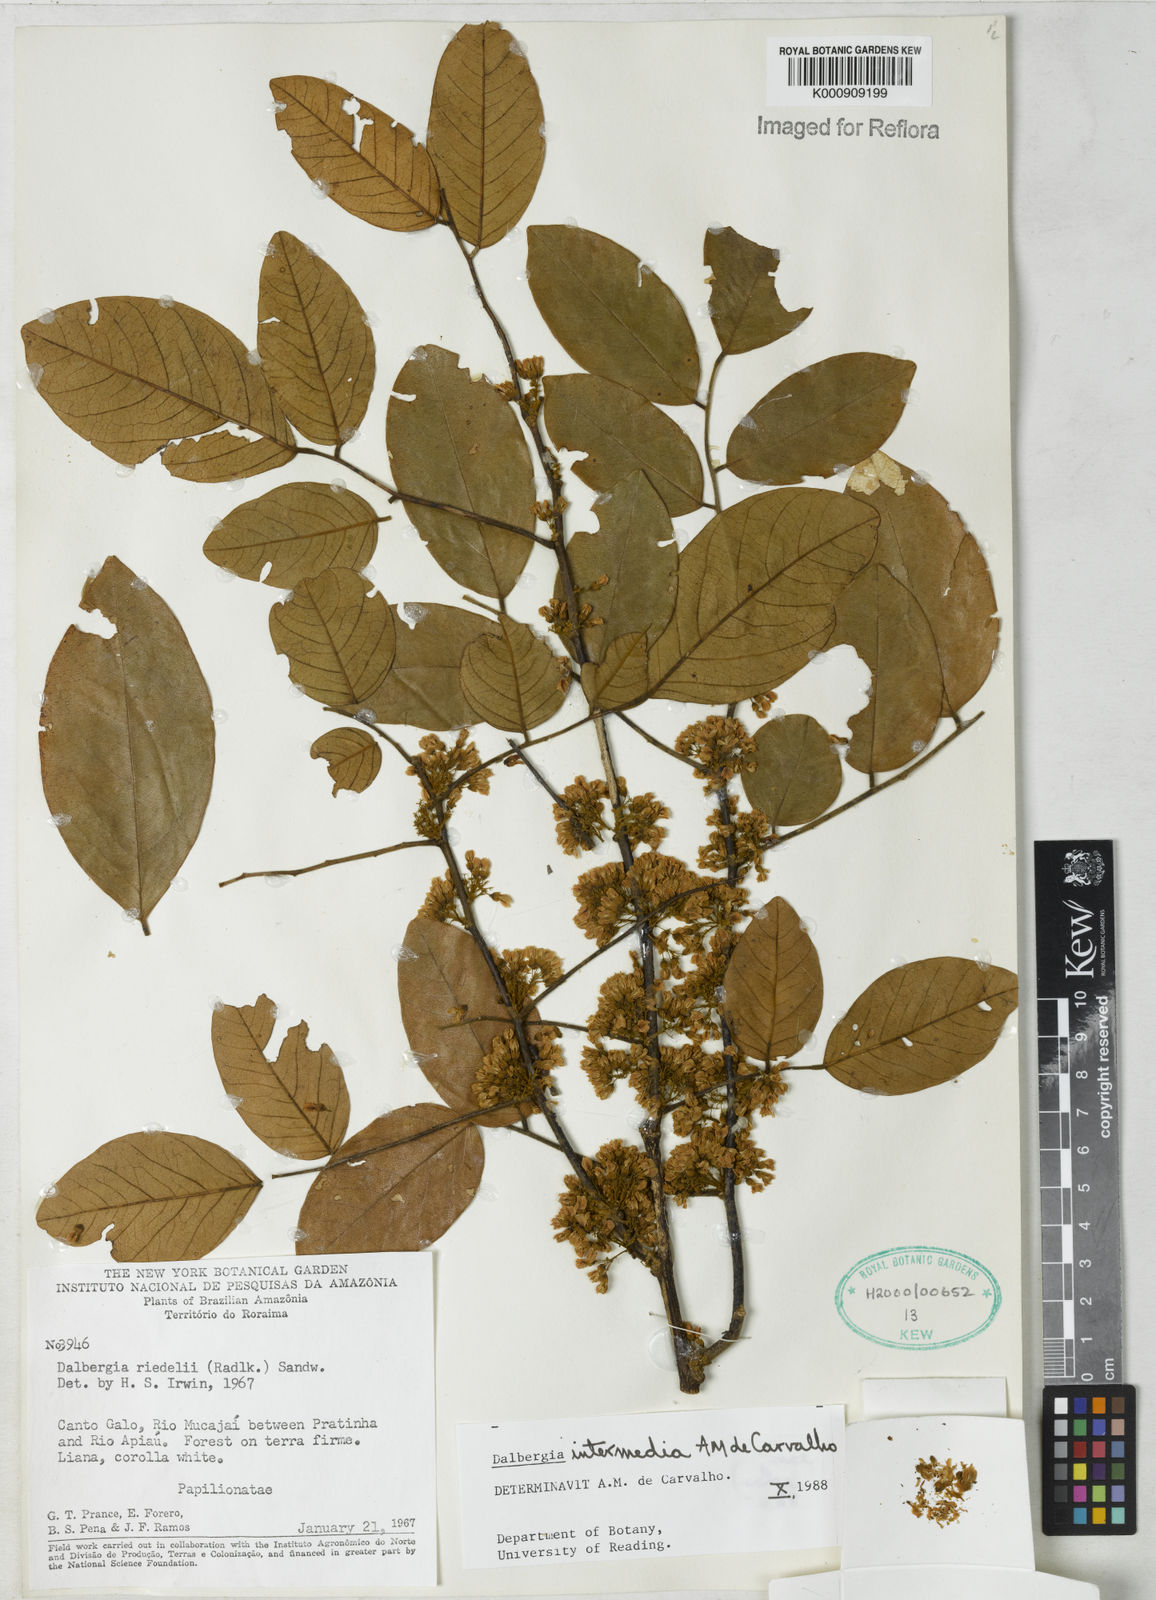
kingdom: Plantae
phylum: Tracheophyta
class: Magnoliopsida
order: Fabales
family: Fabaceae
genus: Dalbergia
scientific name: Dalbergia intermedia
